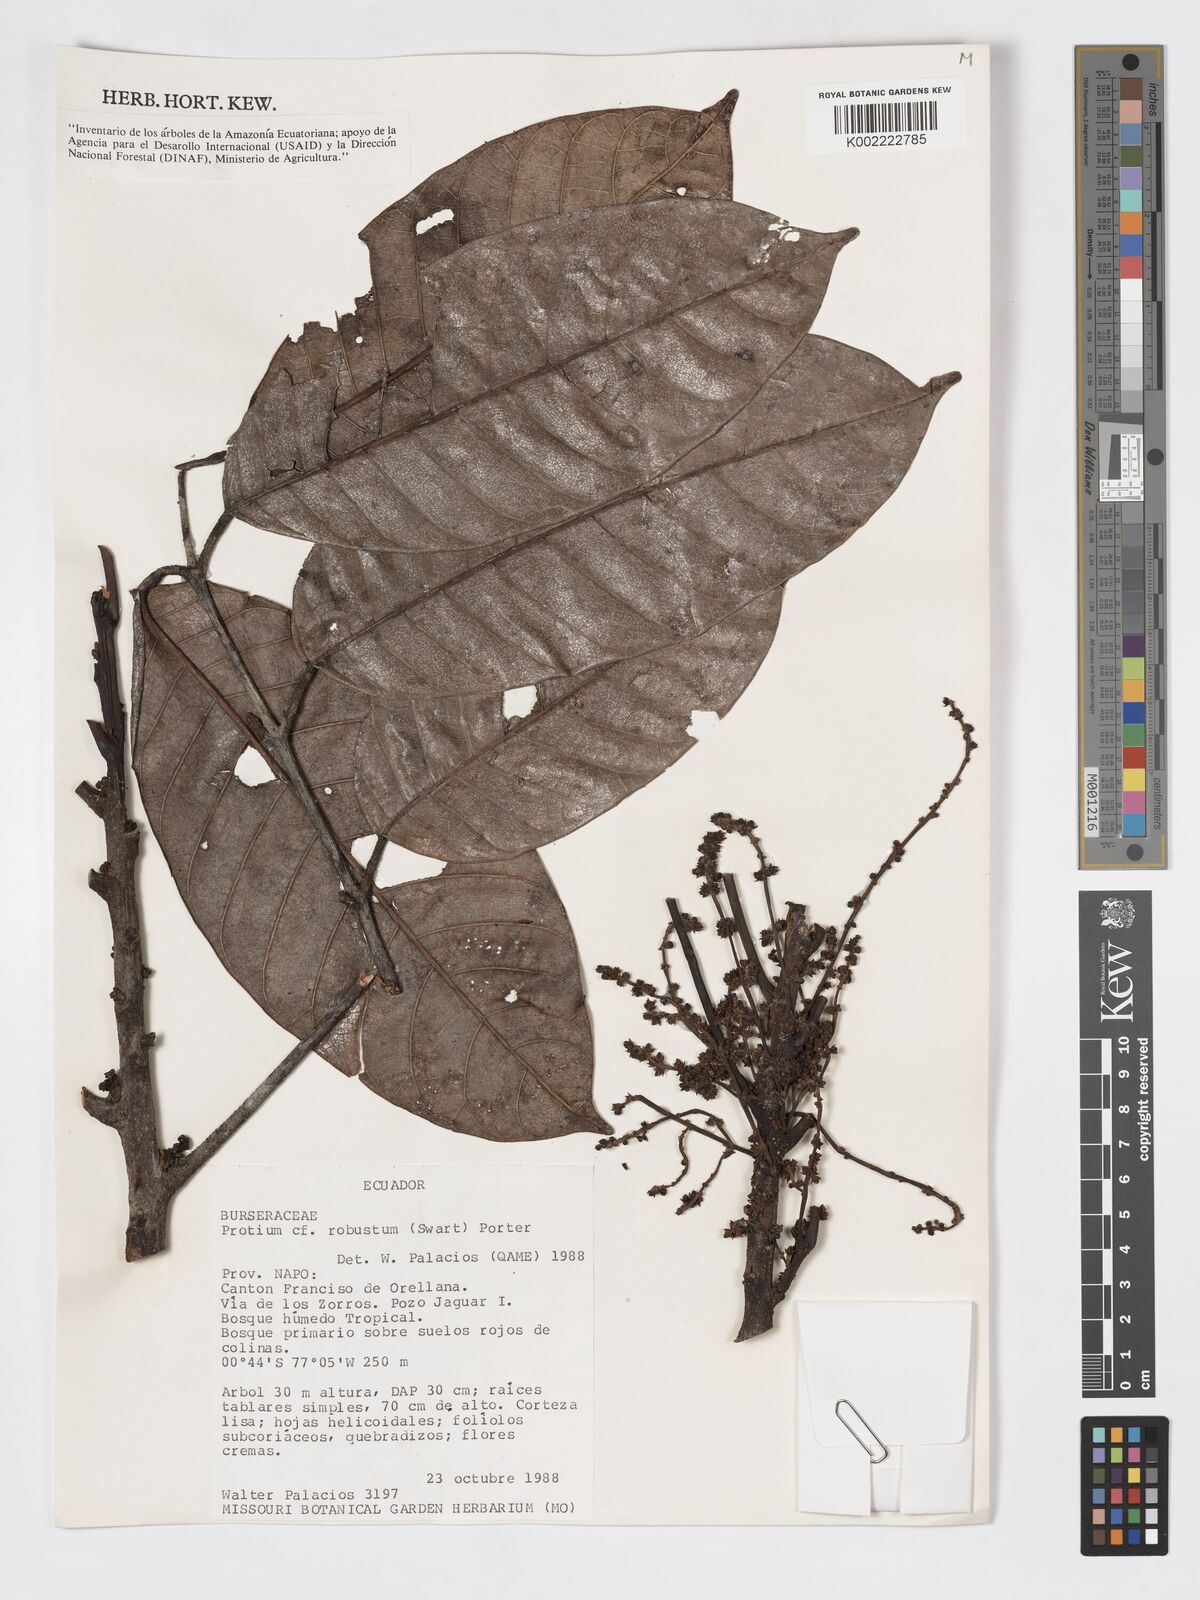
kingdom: Plantae
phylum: Tracheophyta
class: Magnoliopsida
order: Sapindales
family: Burseraceae
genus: Protium
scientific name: Protium robustum
